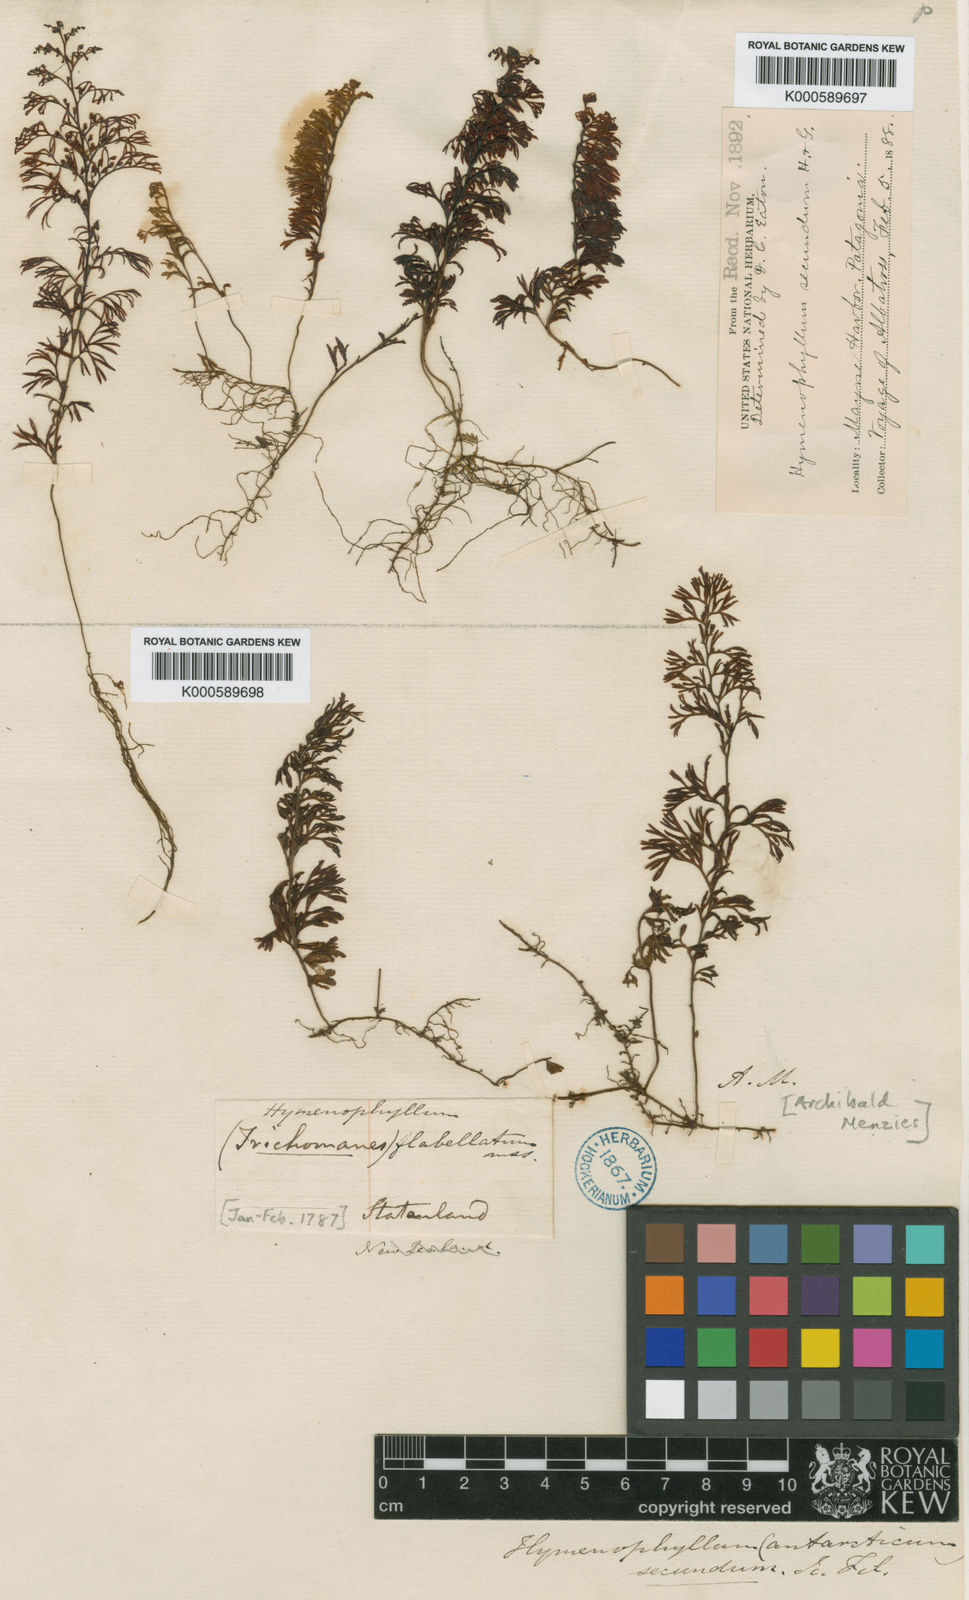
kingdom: Plantae
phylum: Tracheophyta
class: Polypodiopsida
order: Hymenophyllales
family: Hymenophyllaceae
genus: Hymenophyllum
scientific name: Hymenophyllum secundum
